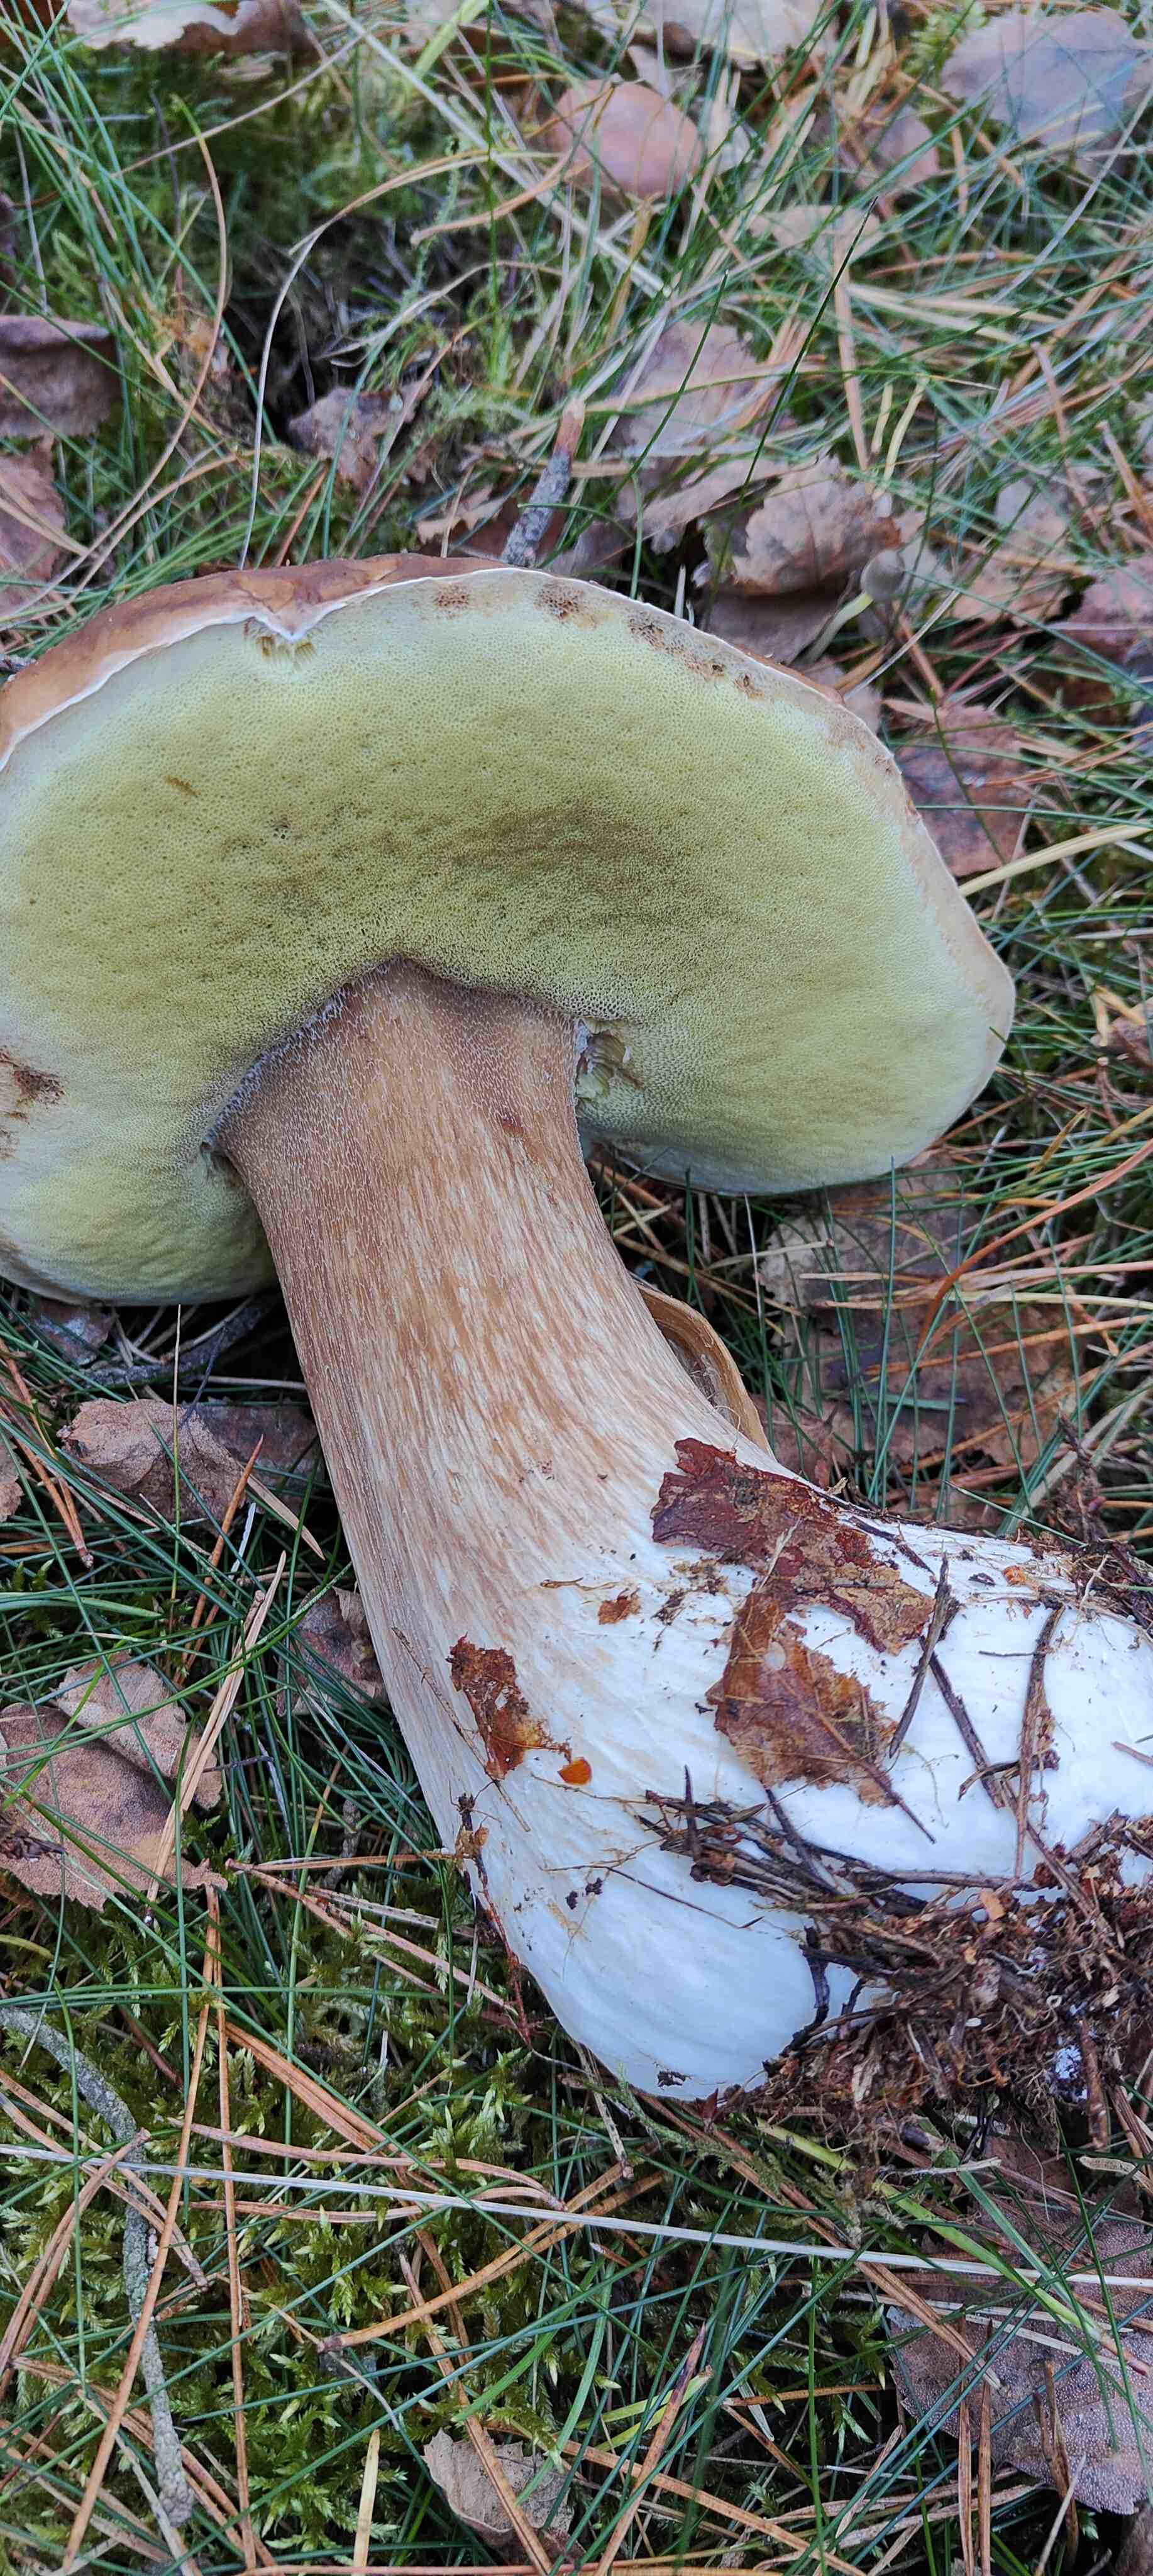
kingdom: Fungi
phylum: Basidiomycota
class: Agaricomycetes
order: Boletales
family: Boletaceae
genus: Boletus
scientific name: Boletus edulis
